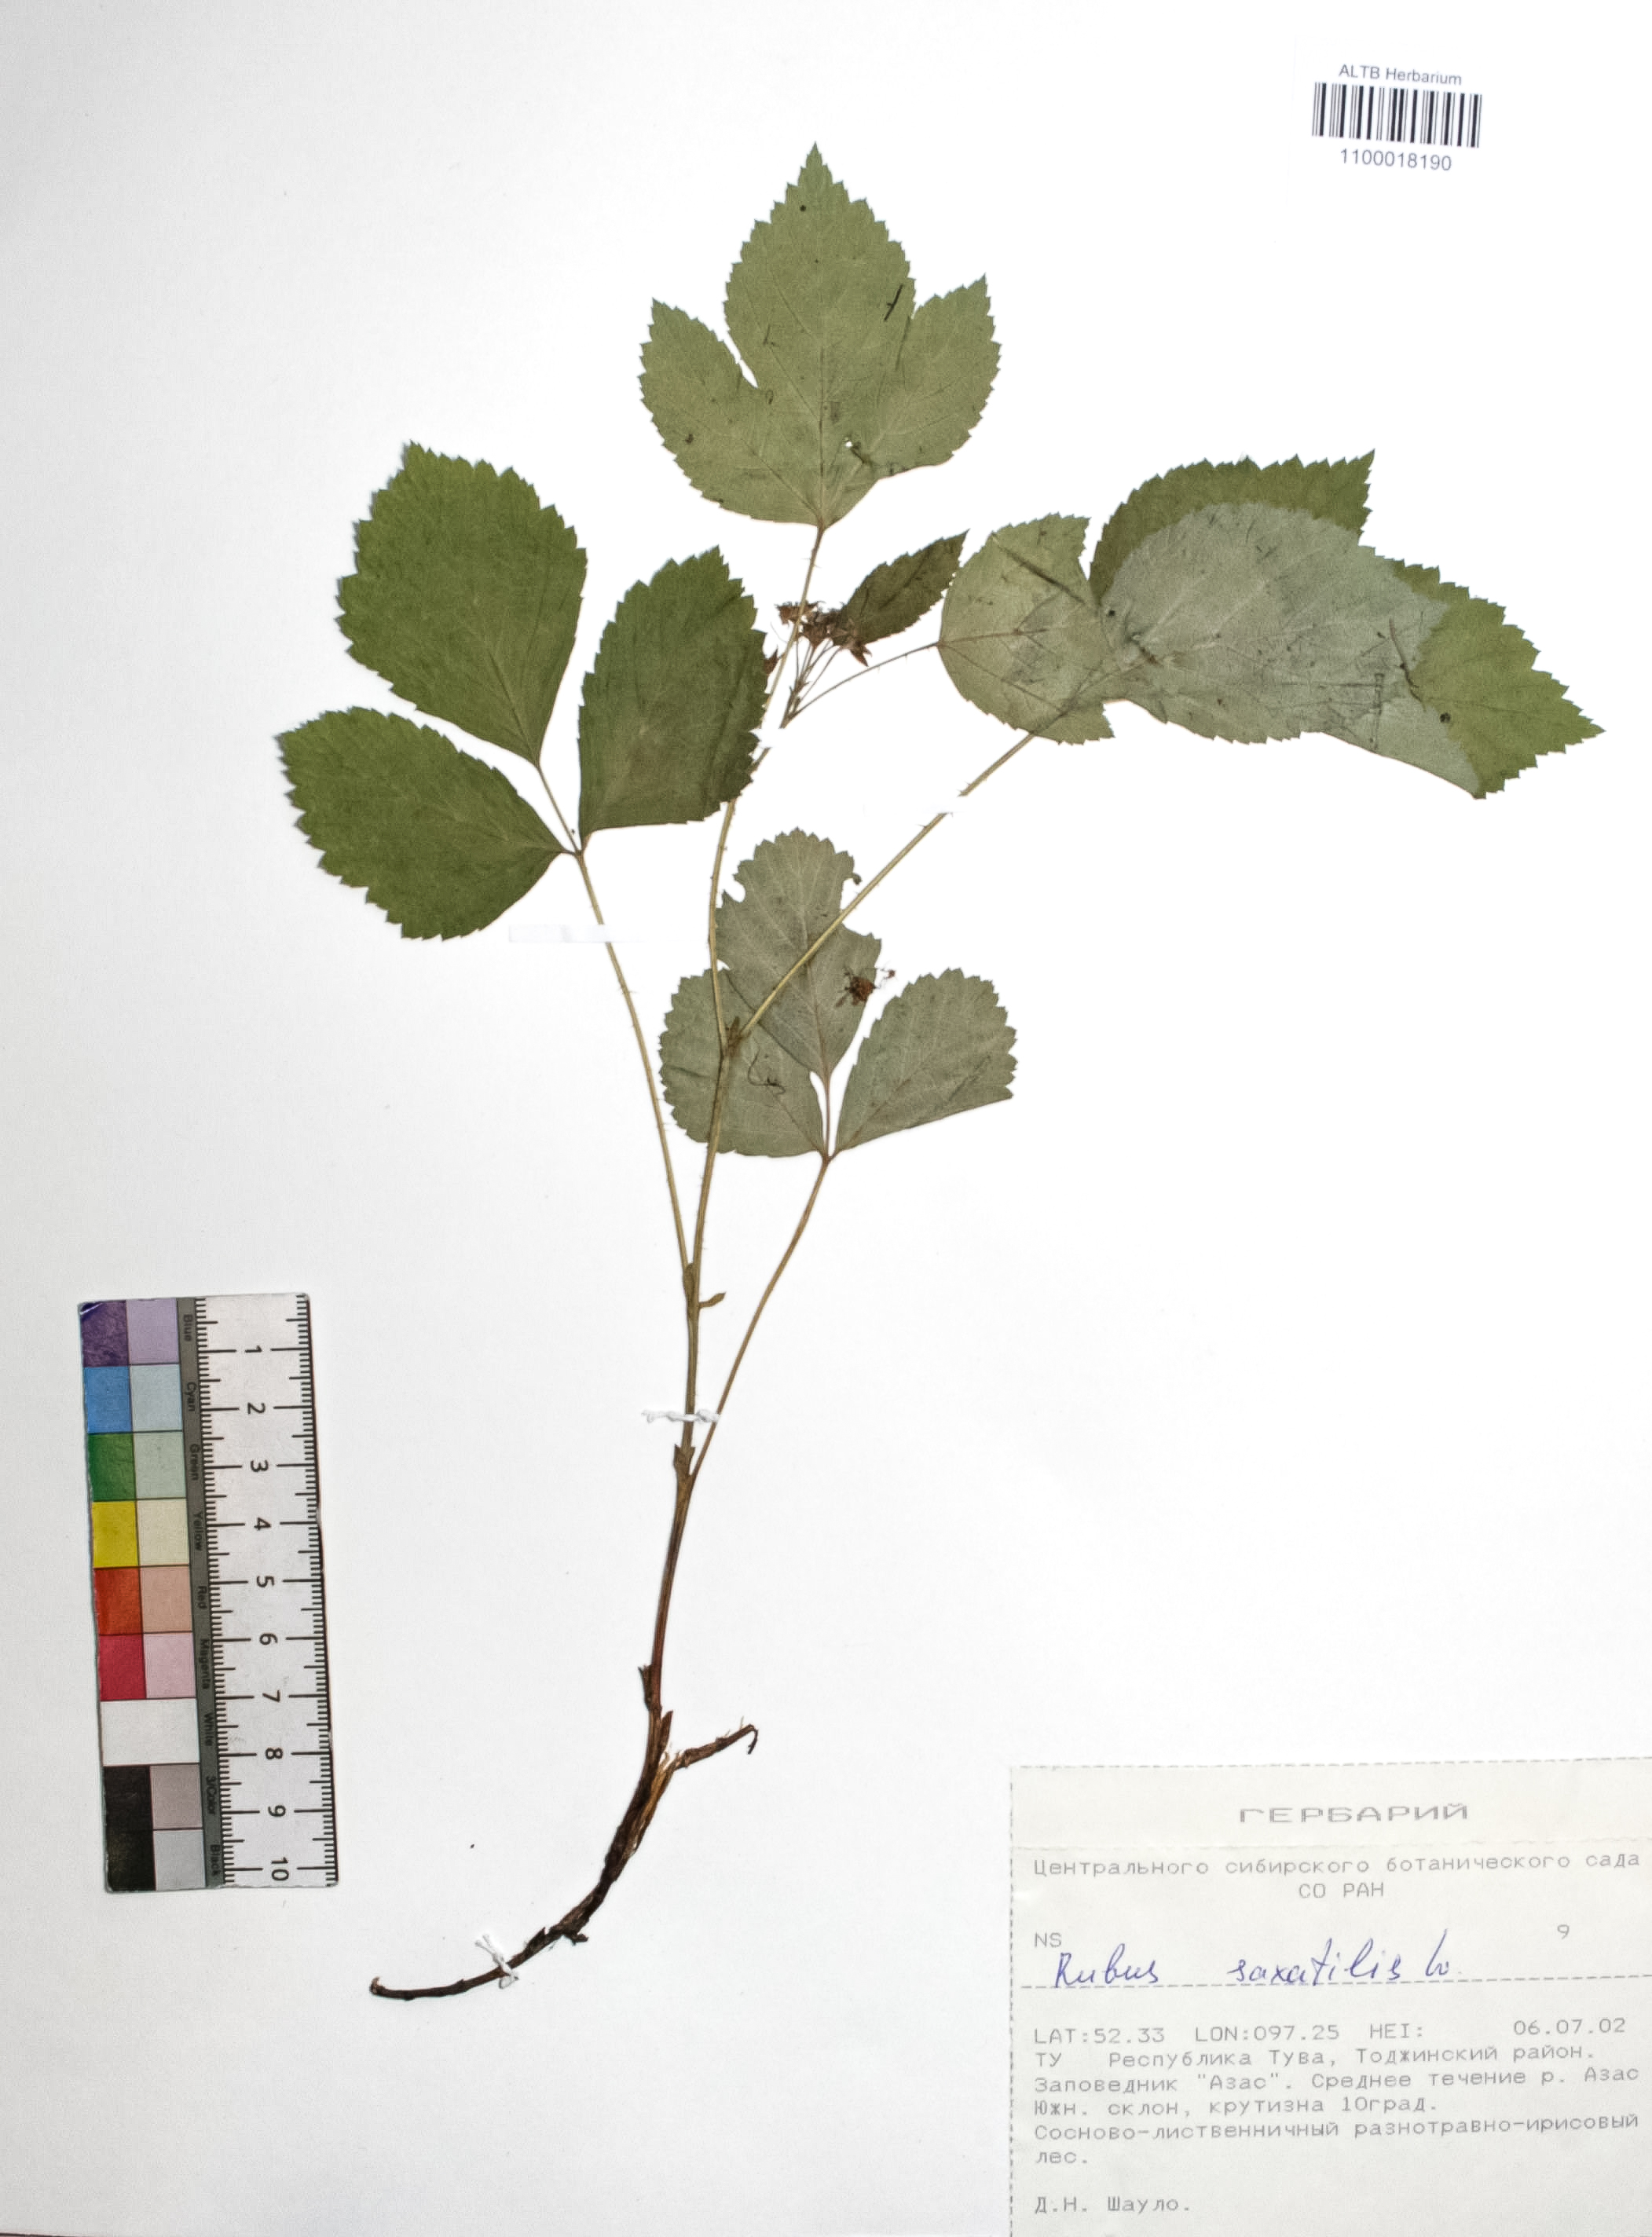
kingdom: Plantae
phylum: Tracheophyta
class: Magnoliopsida
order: Rosales
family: Rosaceae
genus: Rubus
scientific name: Rubus saxatilis
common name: Stone bramble
